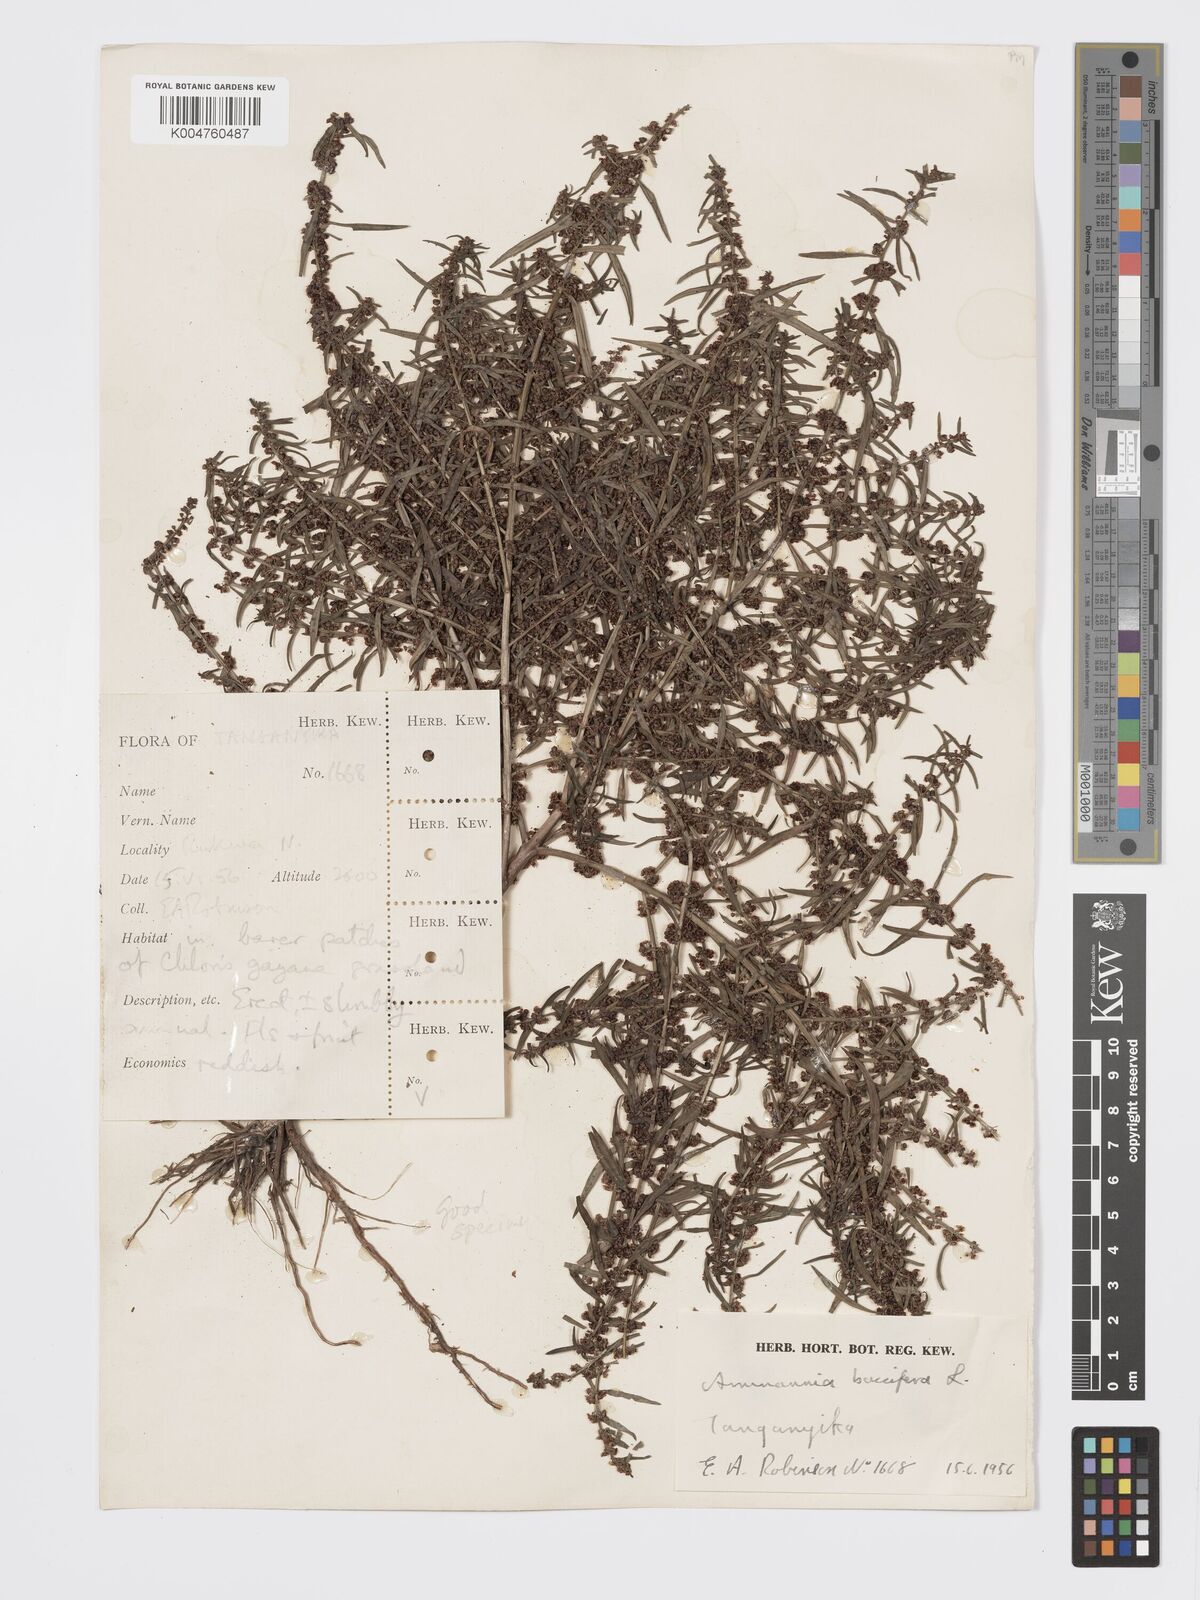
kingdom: Plantae
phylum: Tracheophyta
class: Magnoliopsida
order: Myrtales
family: Lythraceae
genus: Ammannia
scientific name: Ammannia
